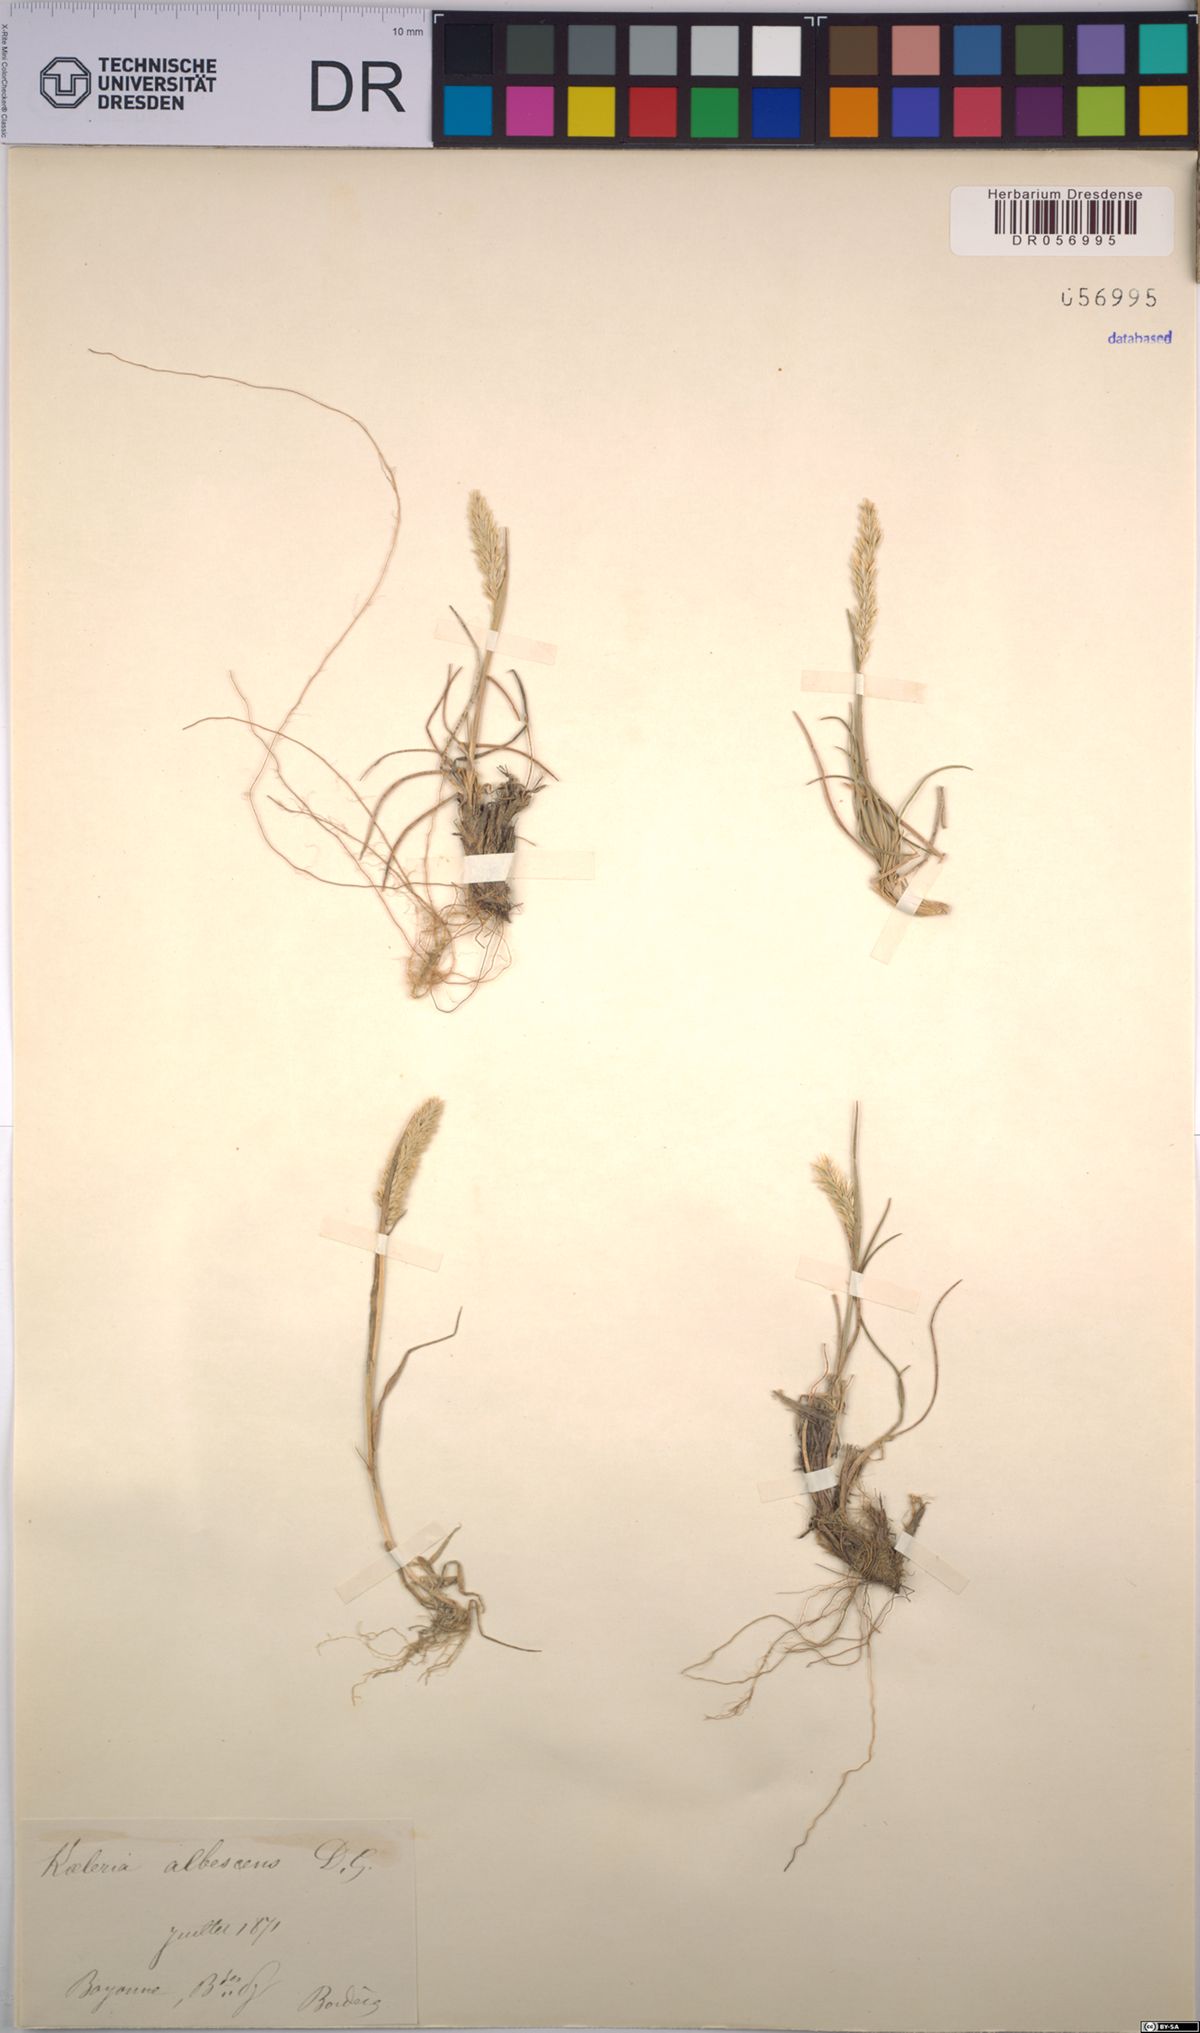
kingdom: Plantae
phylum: Tracheophyta
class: Liliopsida
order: Poales
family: Poaceae
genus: Koeleria
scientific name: Koeleria pyramidata
